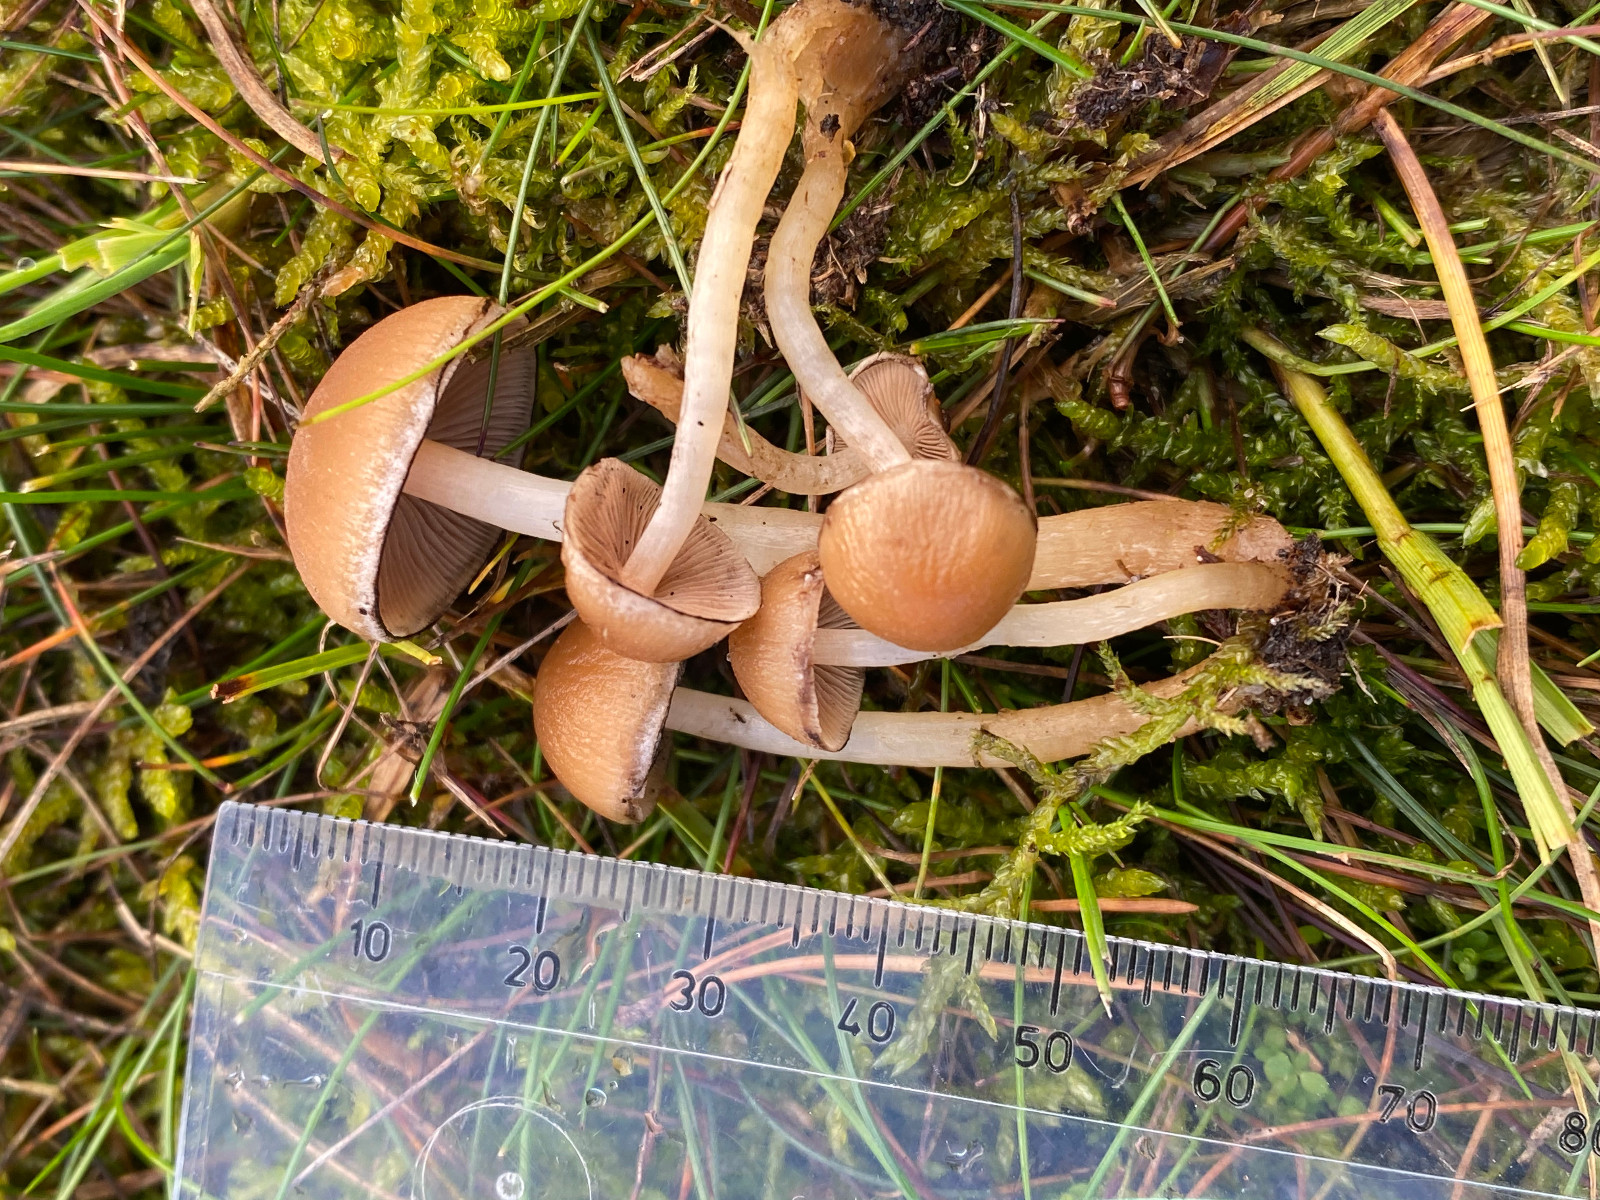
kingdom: Fungi
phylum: Basidiomycota
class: Agaricomycetes
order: Agaricales
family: Psathyrellaceae
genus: Psathyrella
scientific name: Psathyrella
